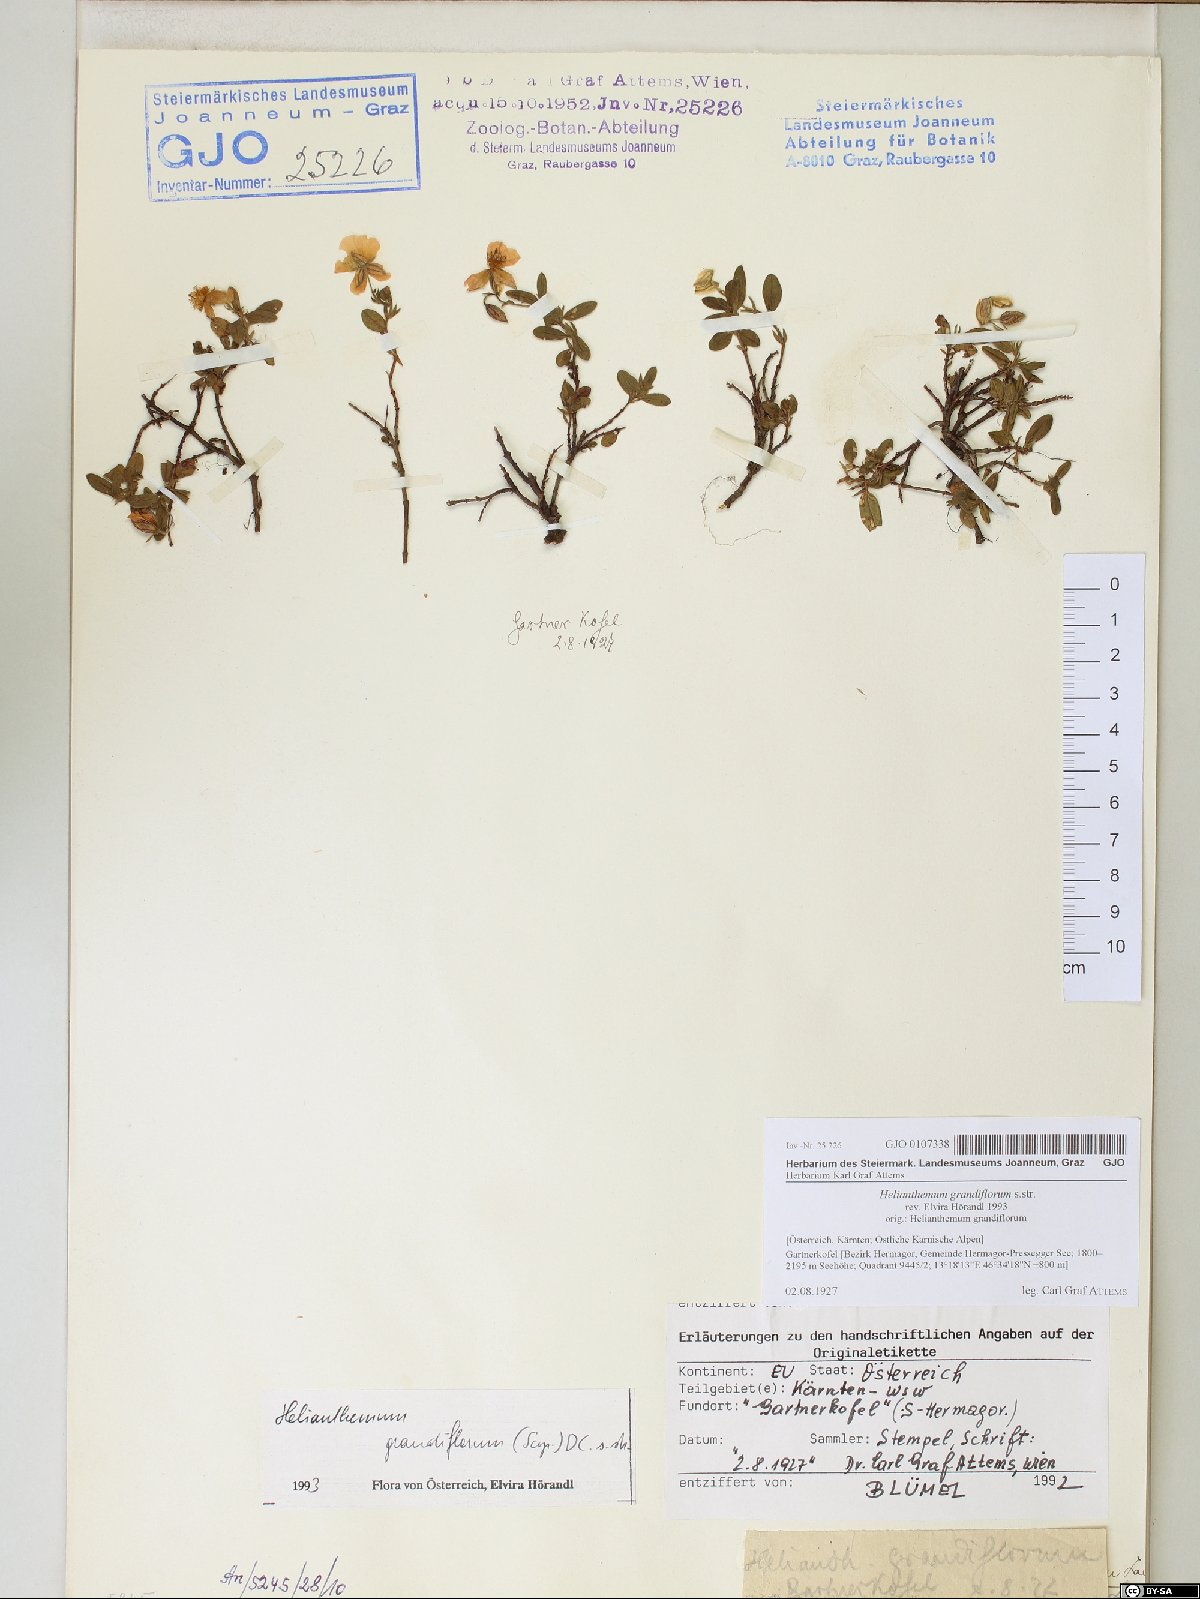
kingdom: Plantae
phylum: Tracheophyta
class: Magnoliopsida
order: Malvales
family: Cistaceae
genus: Helianthemum
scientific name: Helianthemum nummularium
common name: Common rock-rose
